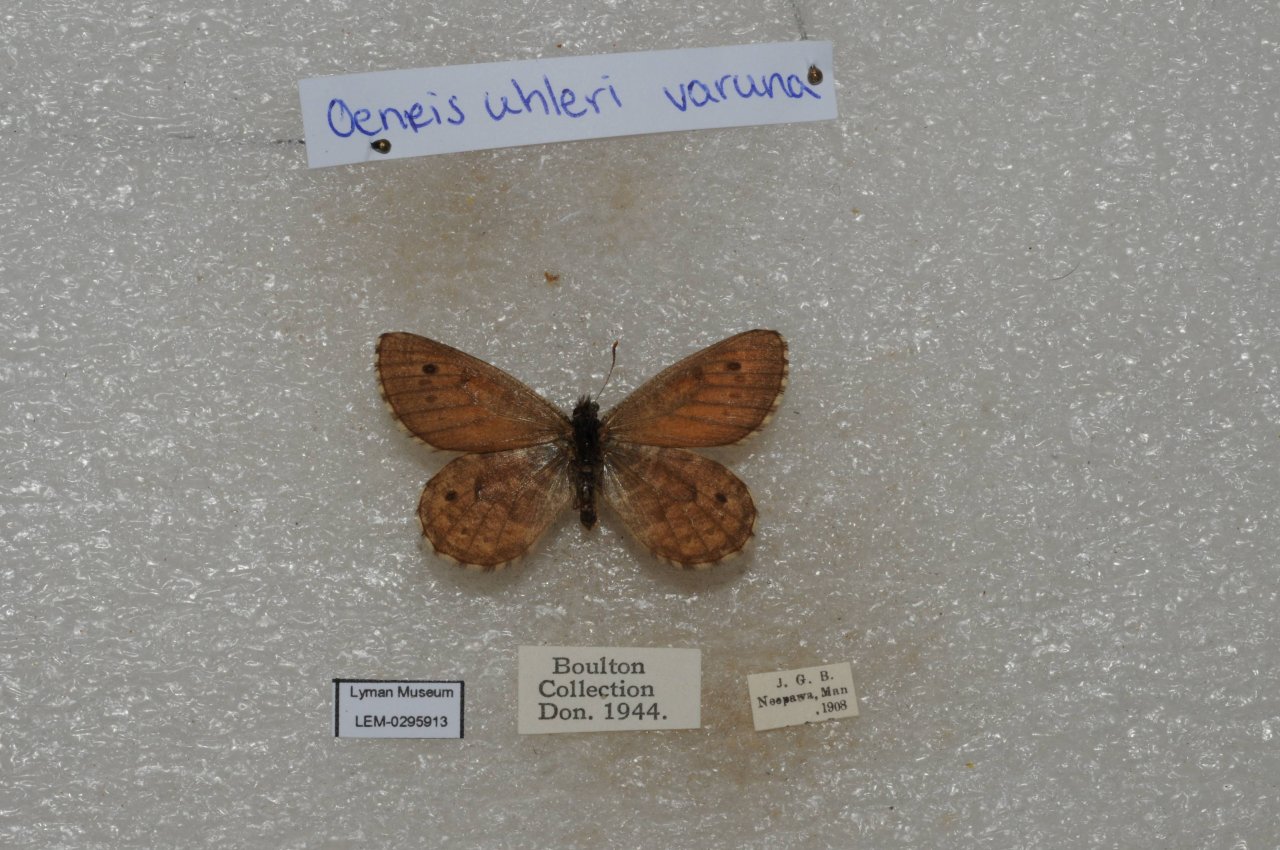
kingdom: Animalia
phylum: Arthropoda
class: Insecta
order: Lepidoptera
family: Nymphalidae
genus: Oeneis
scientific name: Oeneis uhleri
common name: Uhler's Arctic
